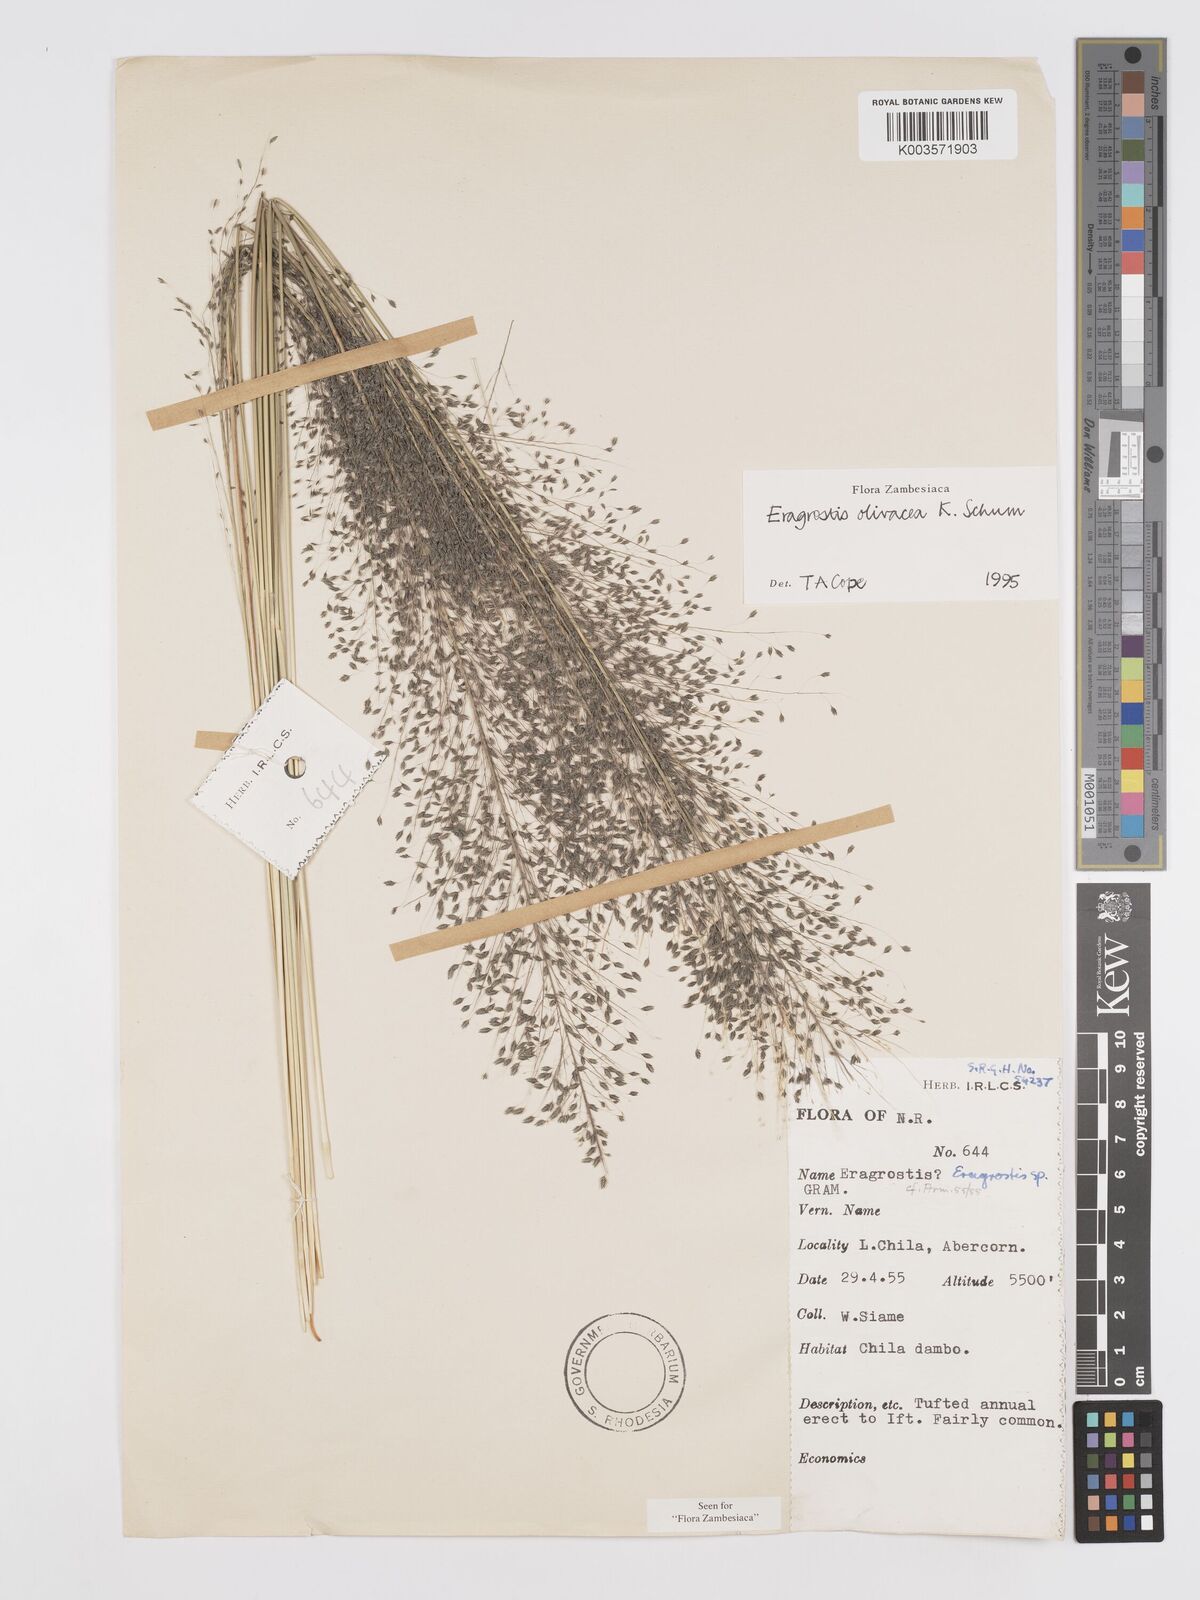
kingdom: Plantae
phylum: Tracheophyta
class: Liliopsida
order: Poales
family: Poaceae
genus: Eragrostis
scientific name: Eragrostis olivacea
